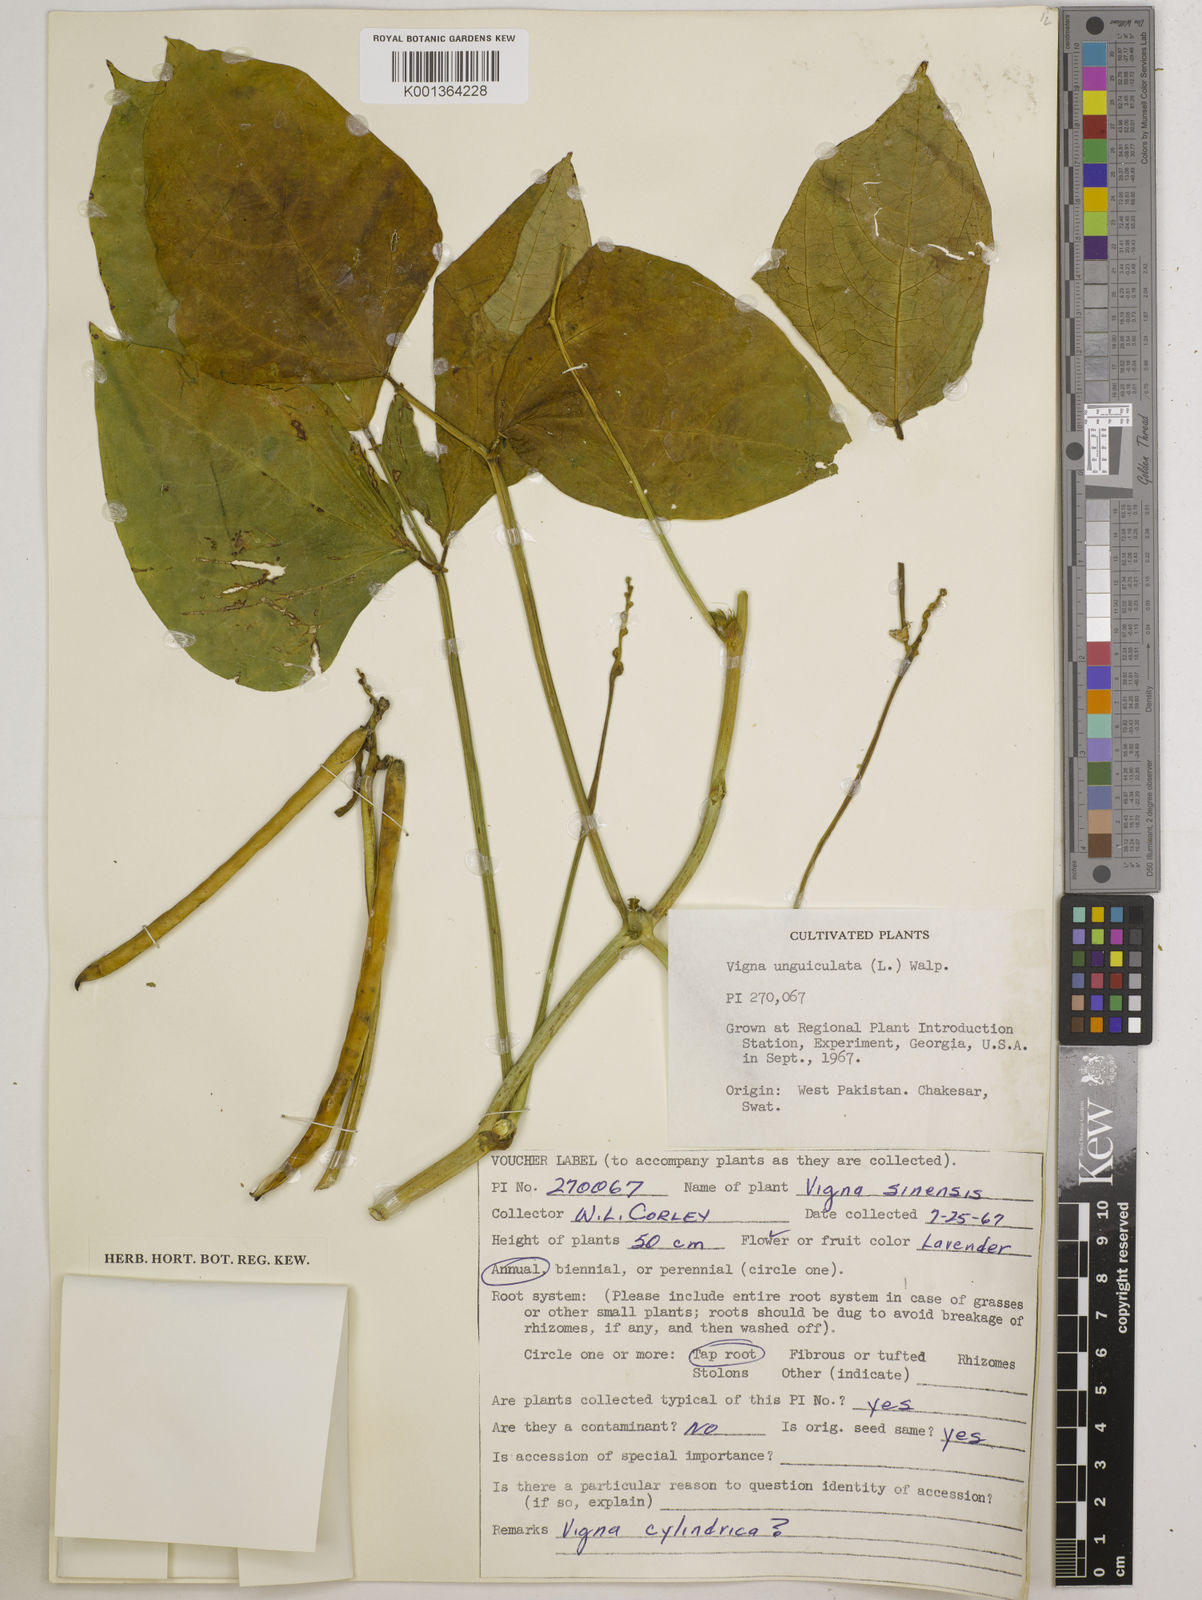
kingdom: Plantae
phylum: Tracheophyta
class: Magnoliopsida
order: Fabales
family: Fabaceae
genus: Vigna
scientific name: Vigna
